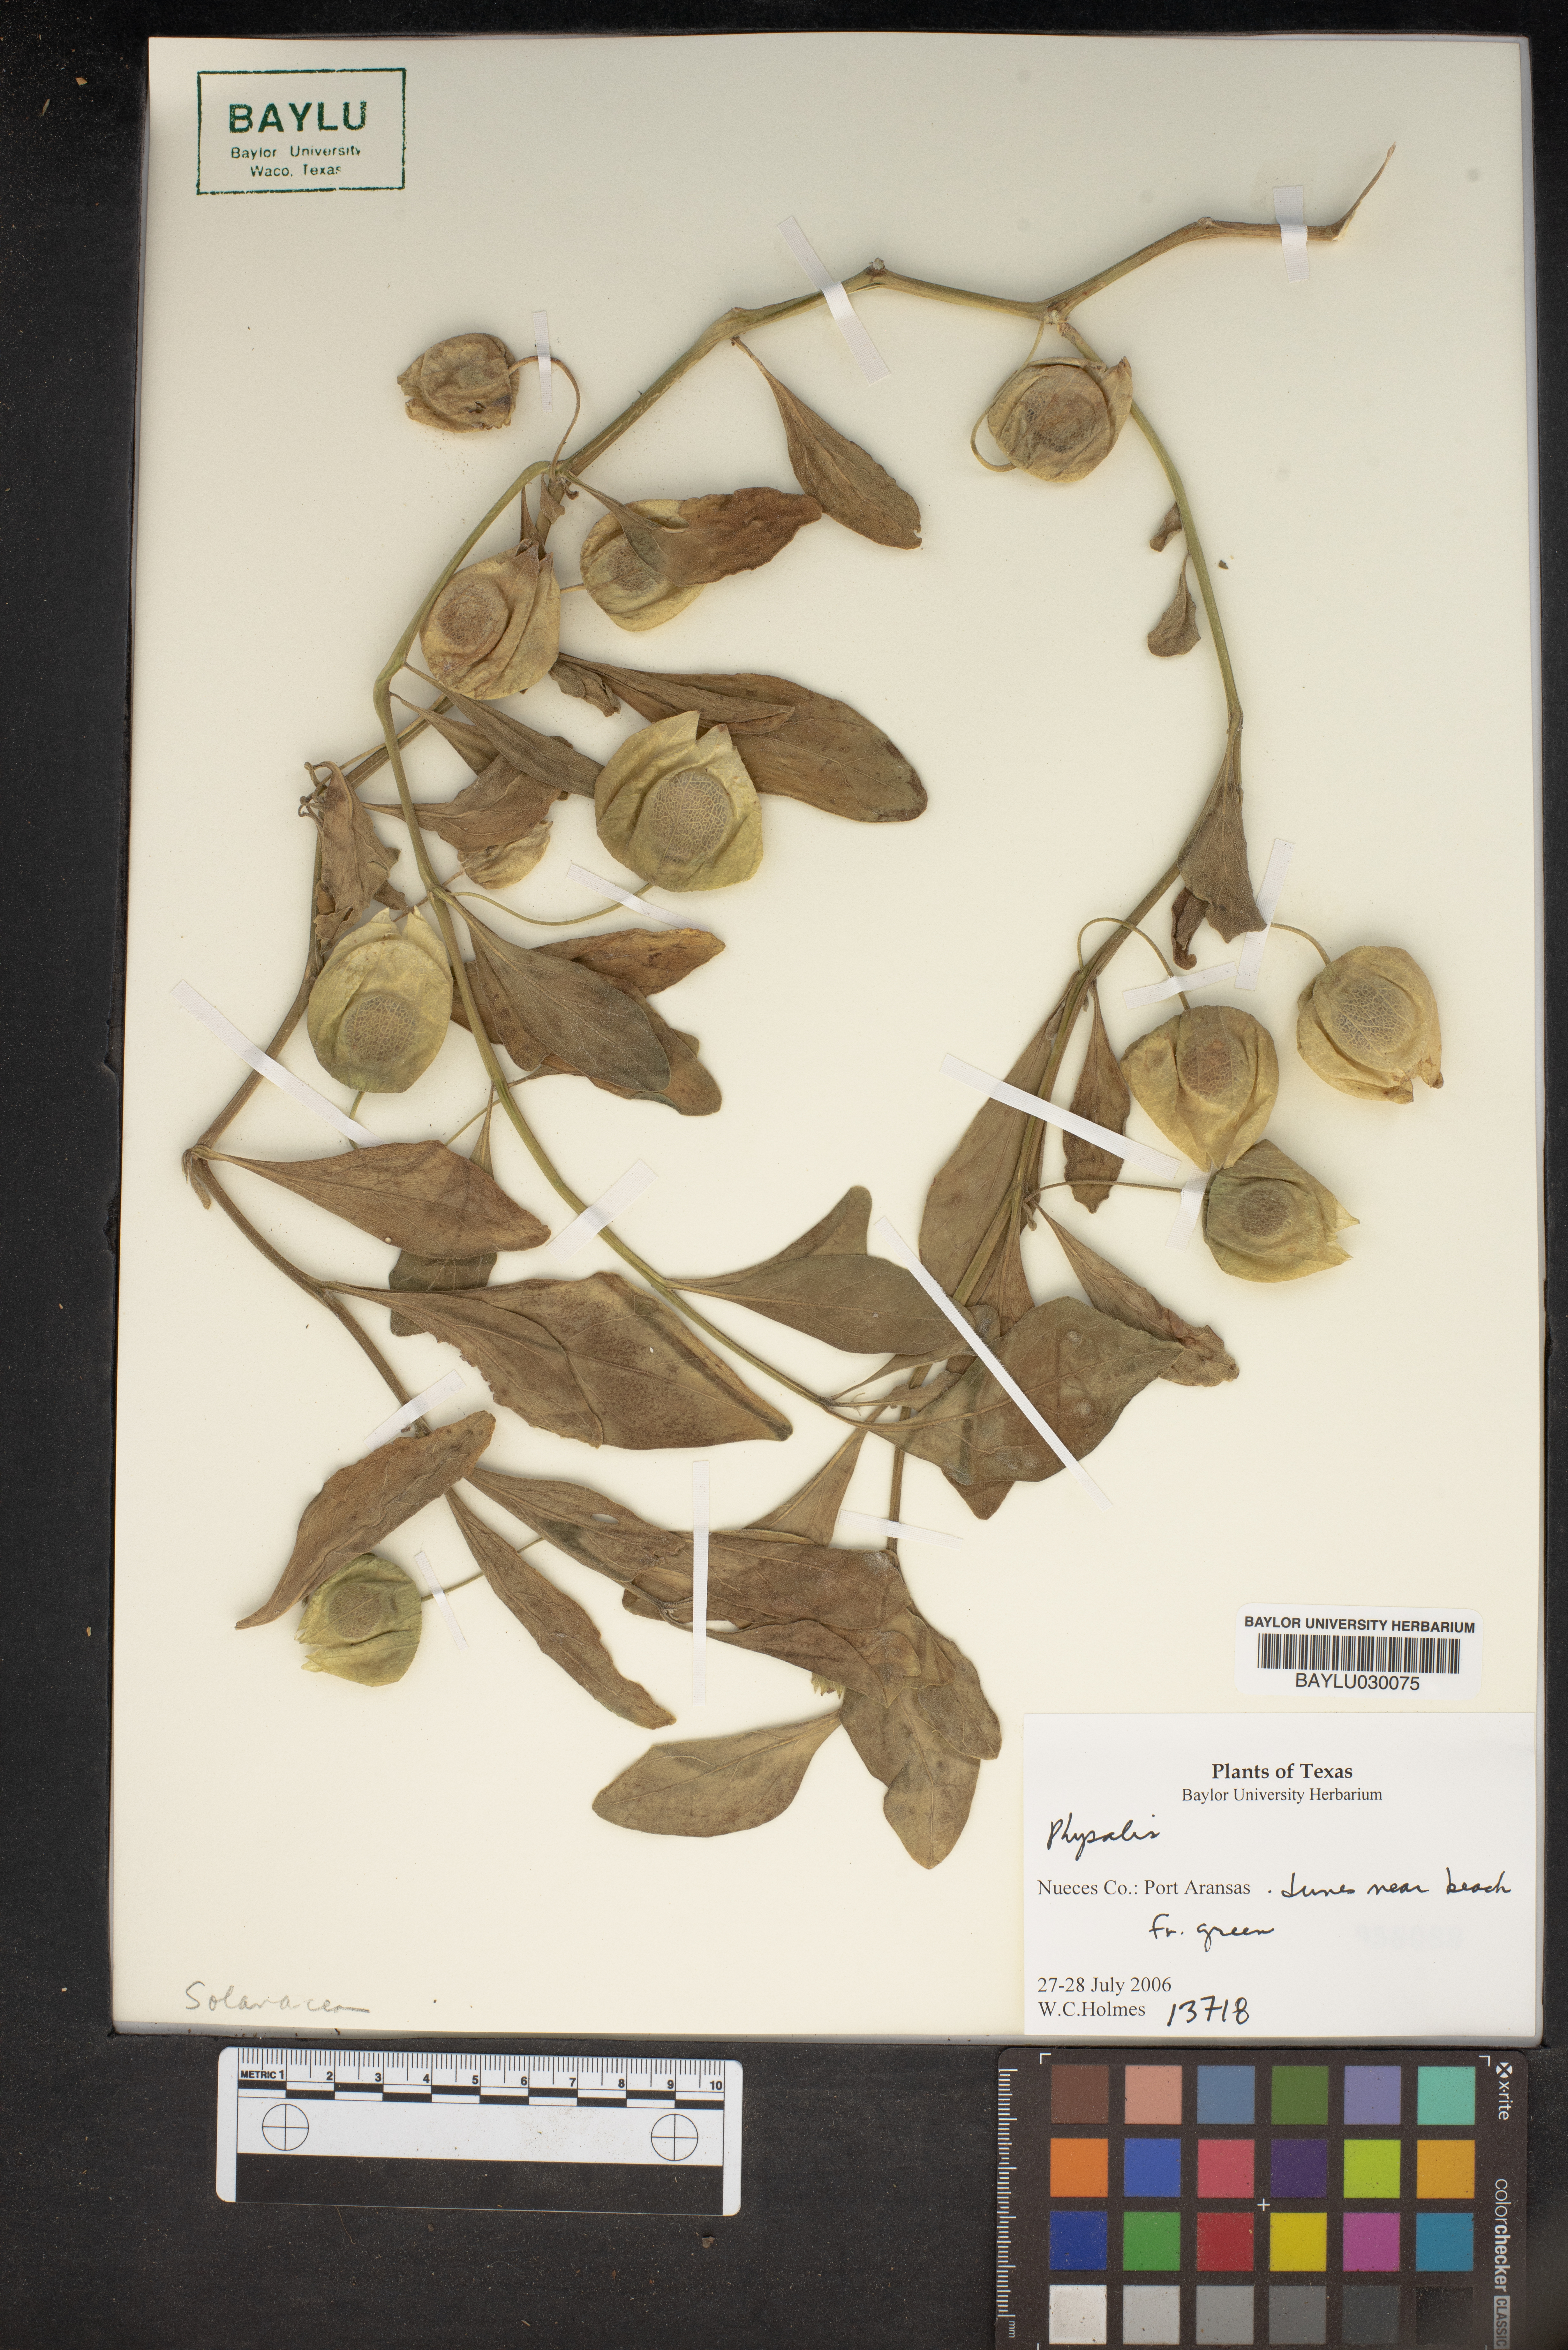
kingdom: Plantae
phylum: Tracheophyta
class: Magnoliopsida
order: Solanales
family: Solanaceae
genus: Physalis
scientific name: Physalis
